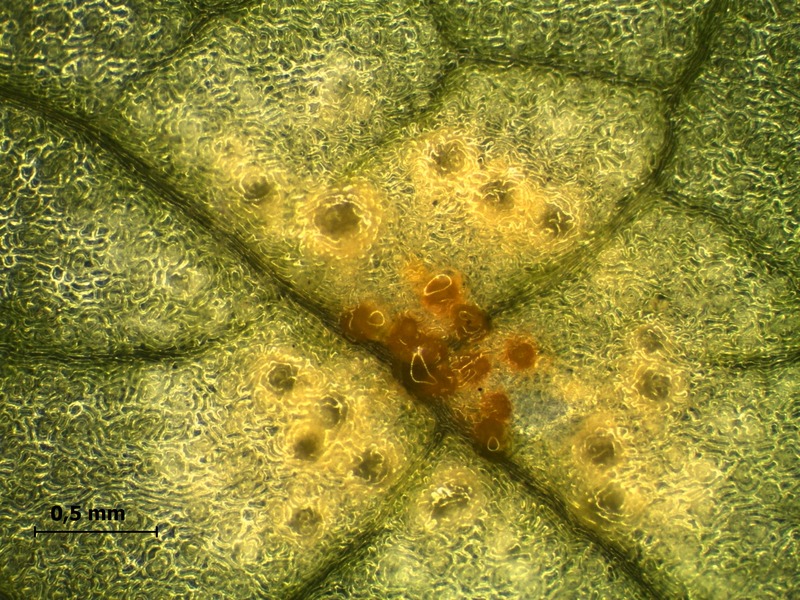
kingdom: Fungi
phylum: Basidiomycota
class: Pucciniomycetes
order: Pucciniales
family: Melampsoraceae
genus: Melampsora
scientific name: Melampsora allii-populina
